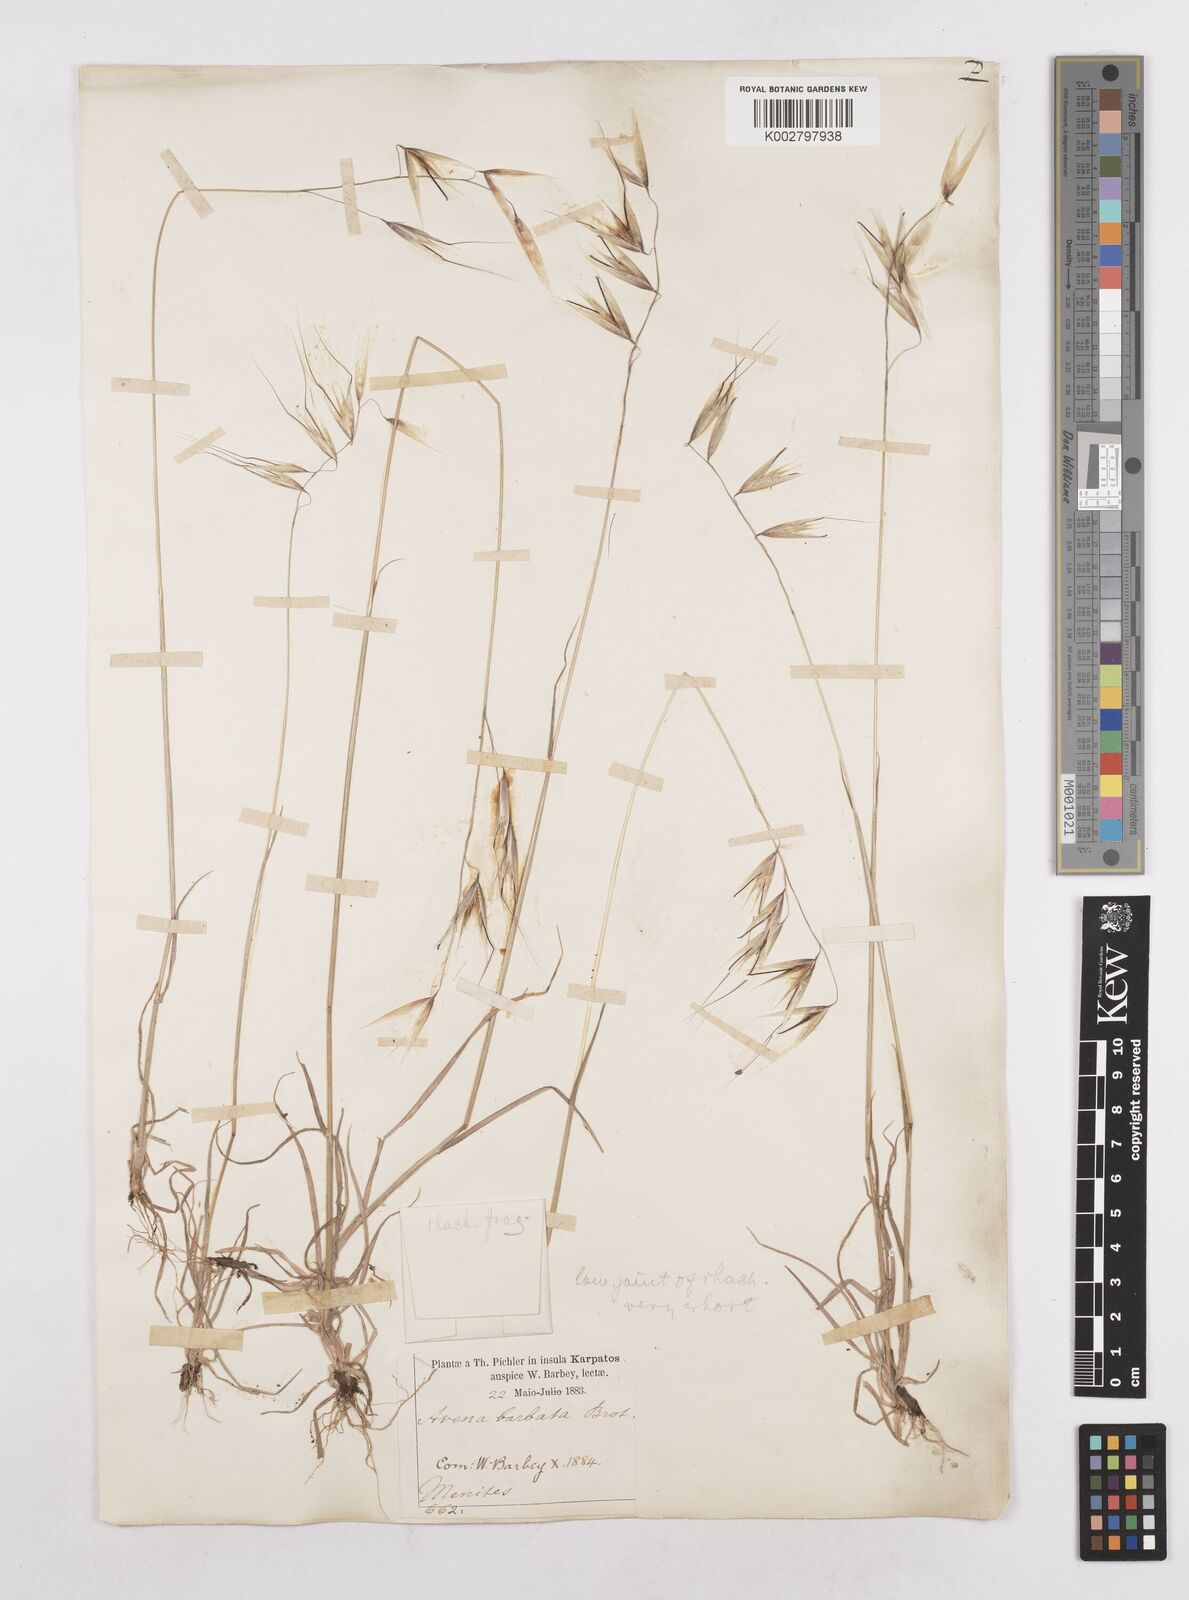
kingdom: Plantae
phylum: Tracheophyta
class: Liliopsida
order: Poales
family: Poaceae
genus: Avena
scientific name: Avena
